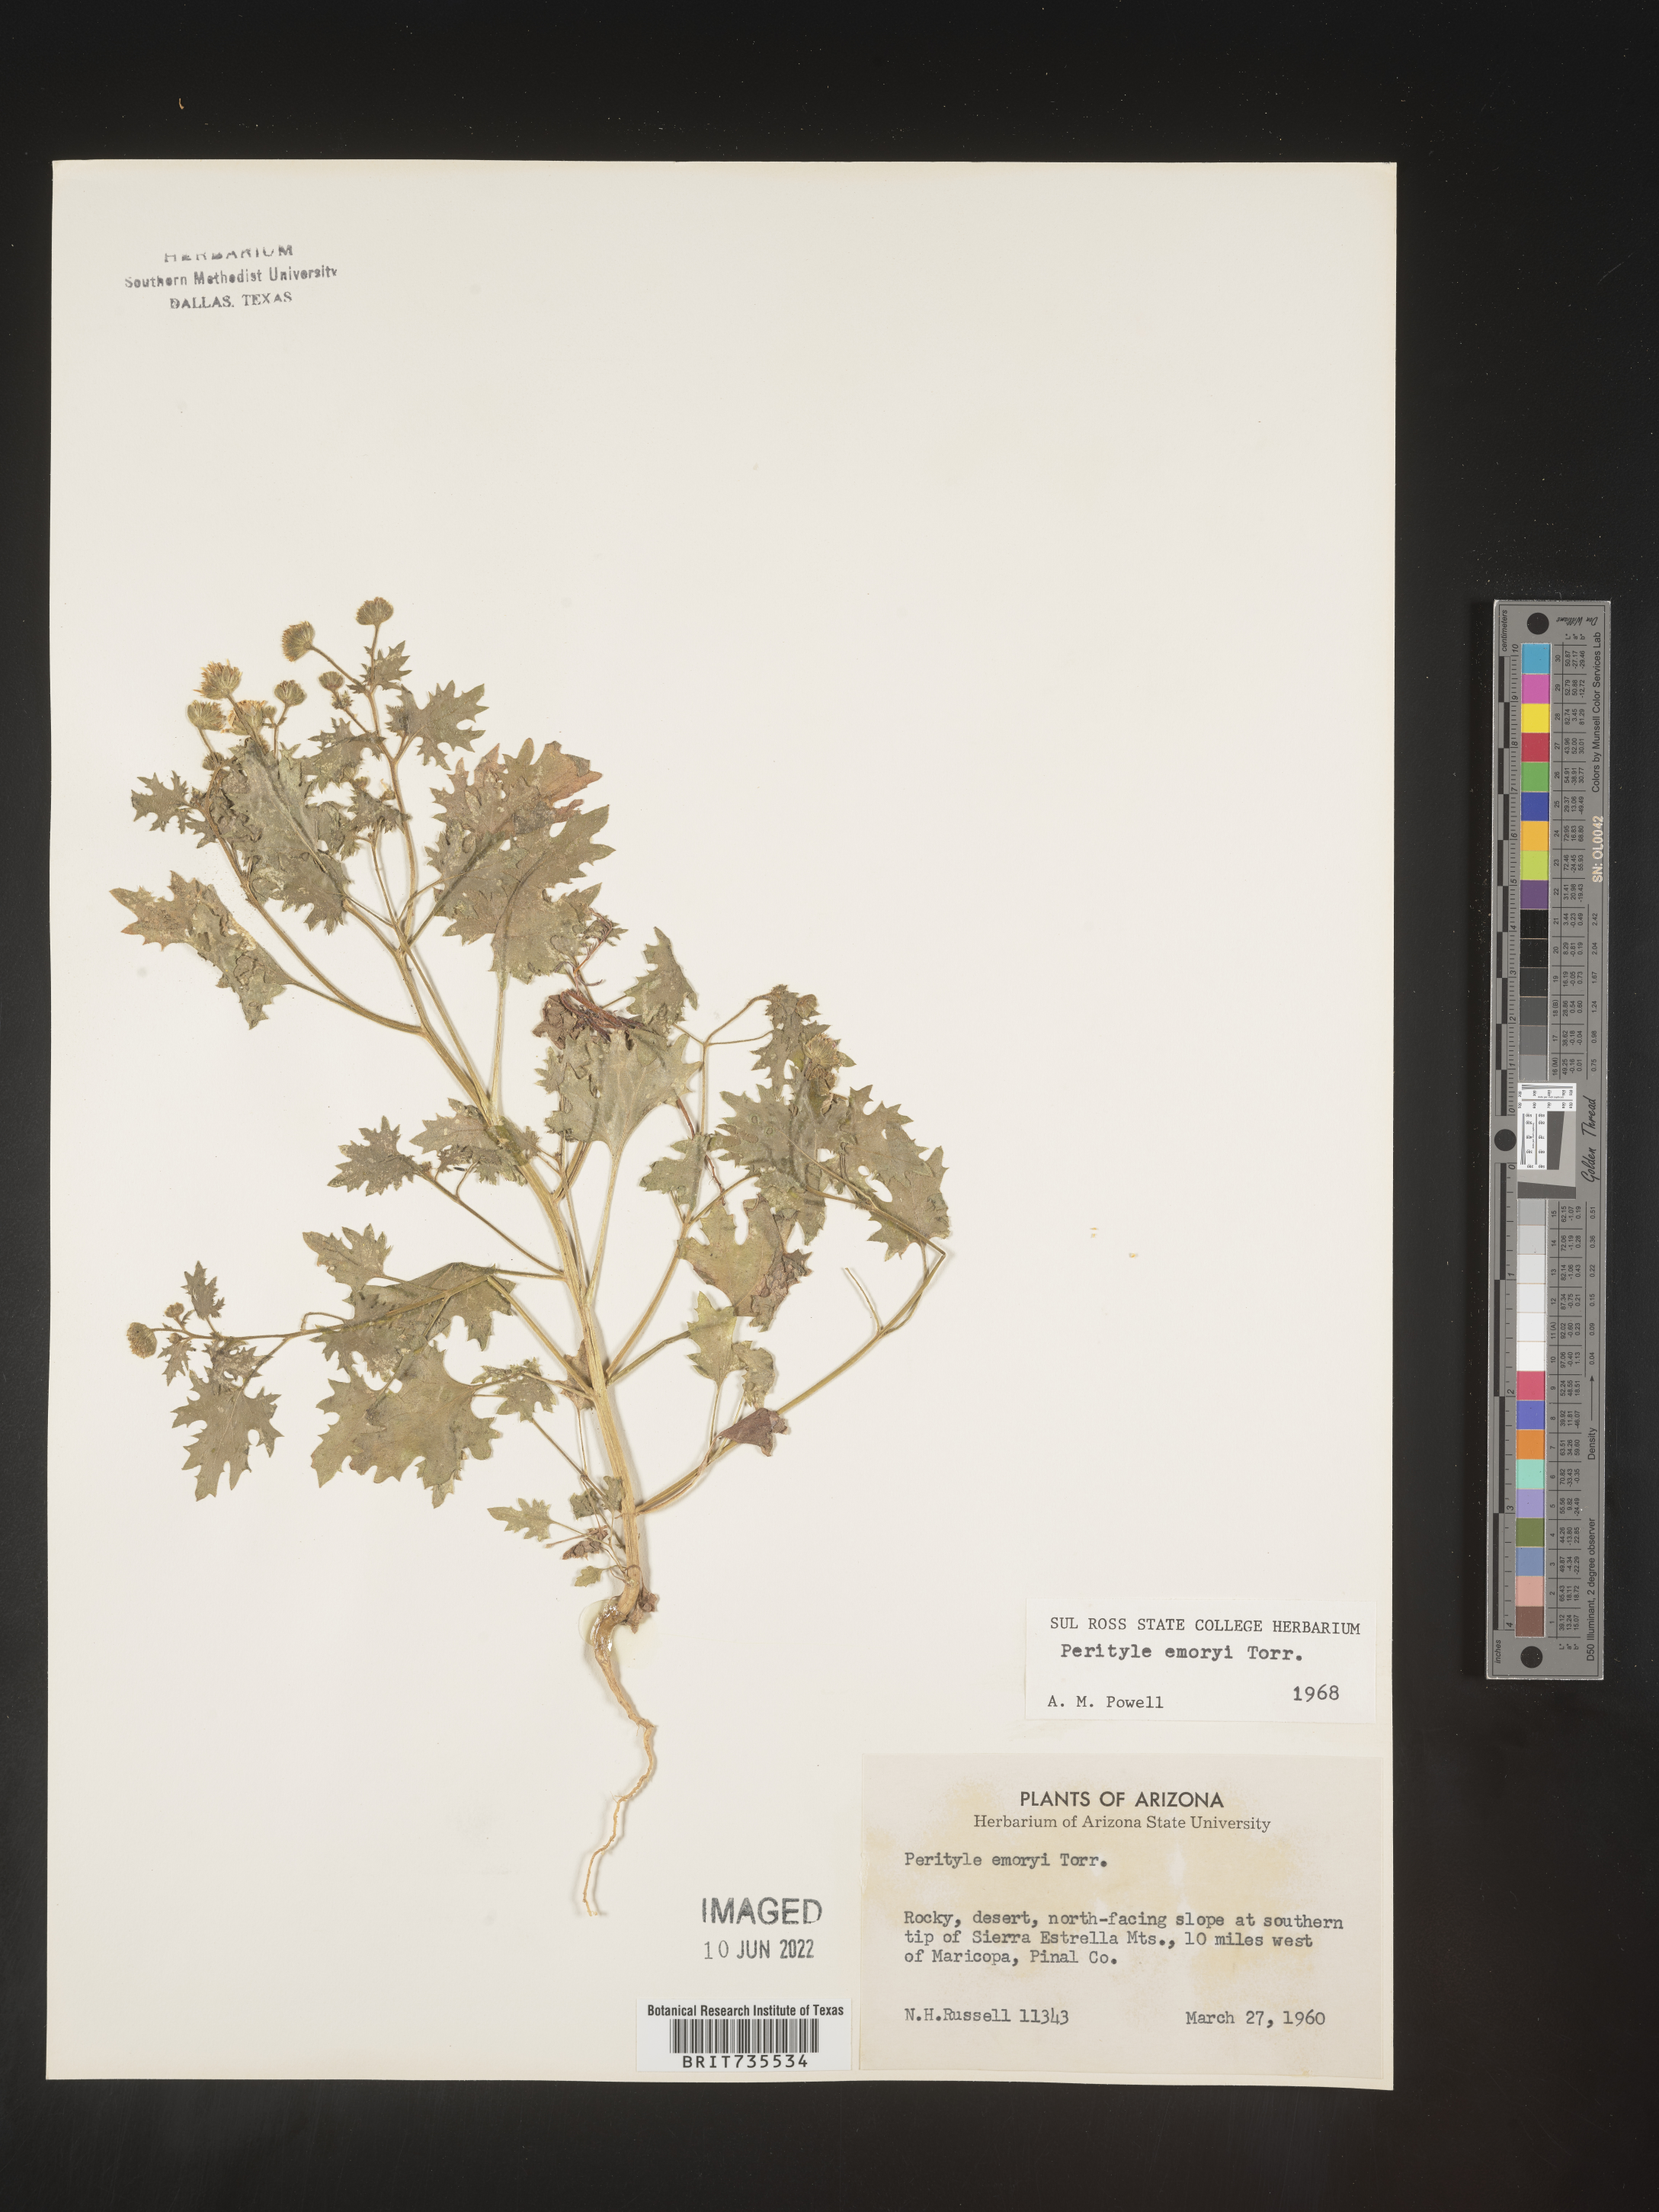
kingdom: Plantae
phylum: Tracheophyta
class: Magnoliopsida
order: Asterales
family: Asteraceae
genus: Perityle
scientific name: Perityle
